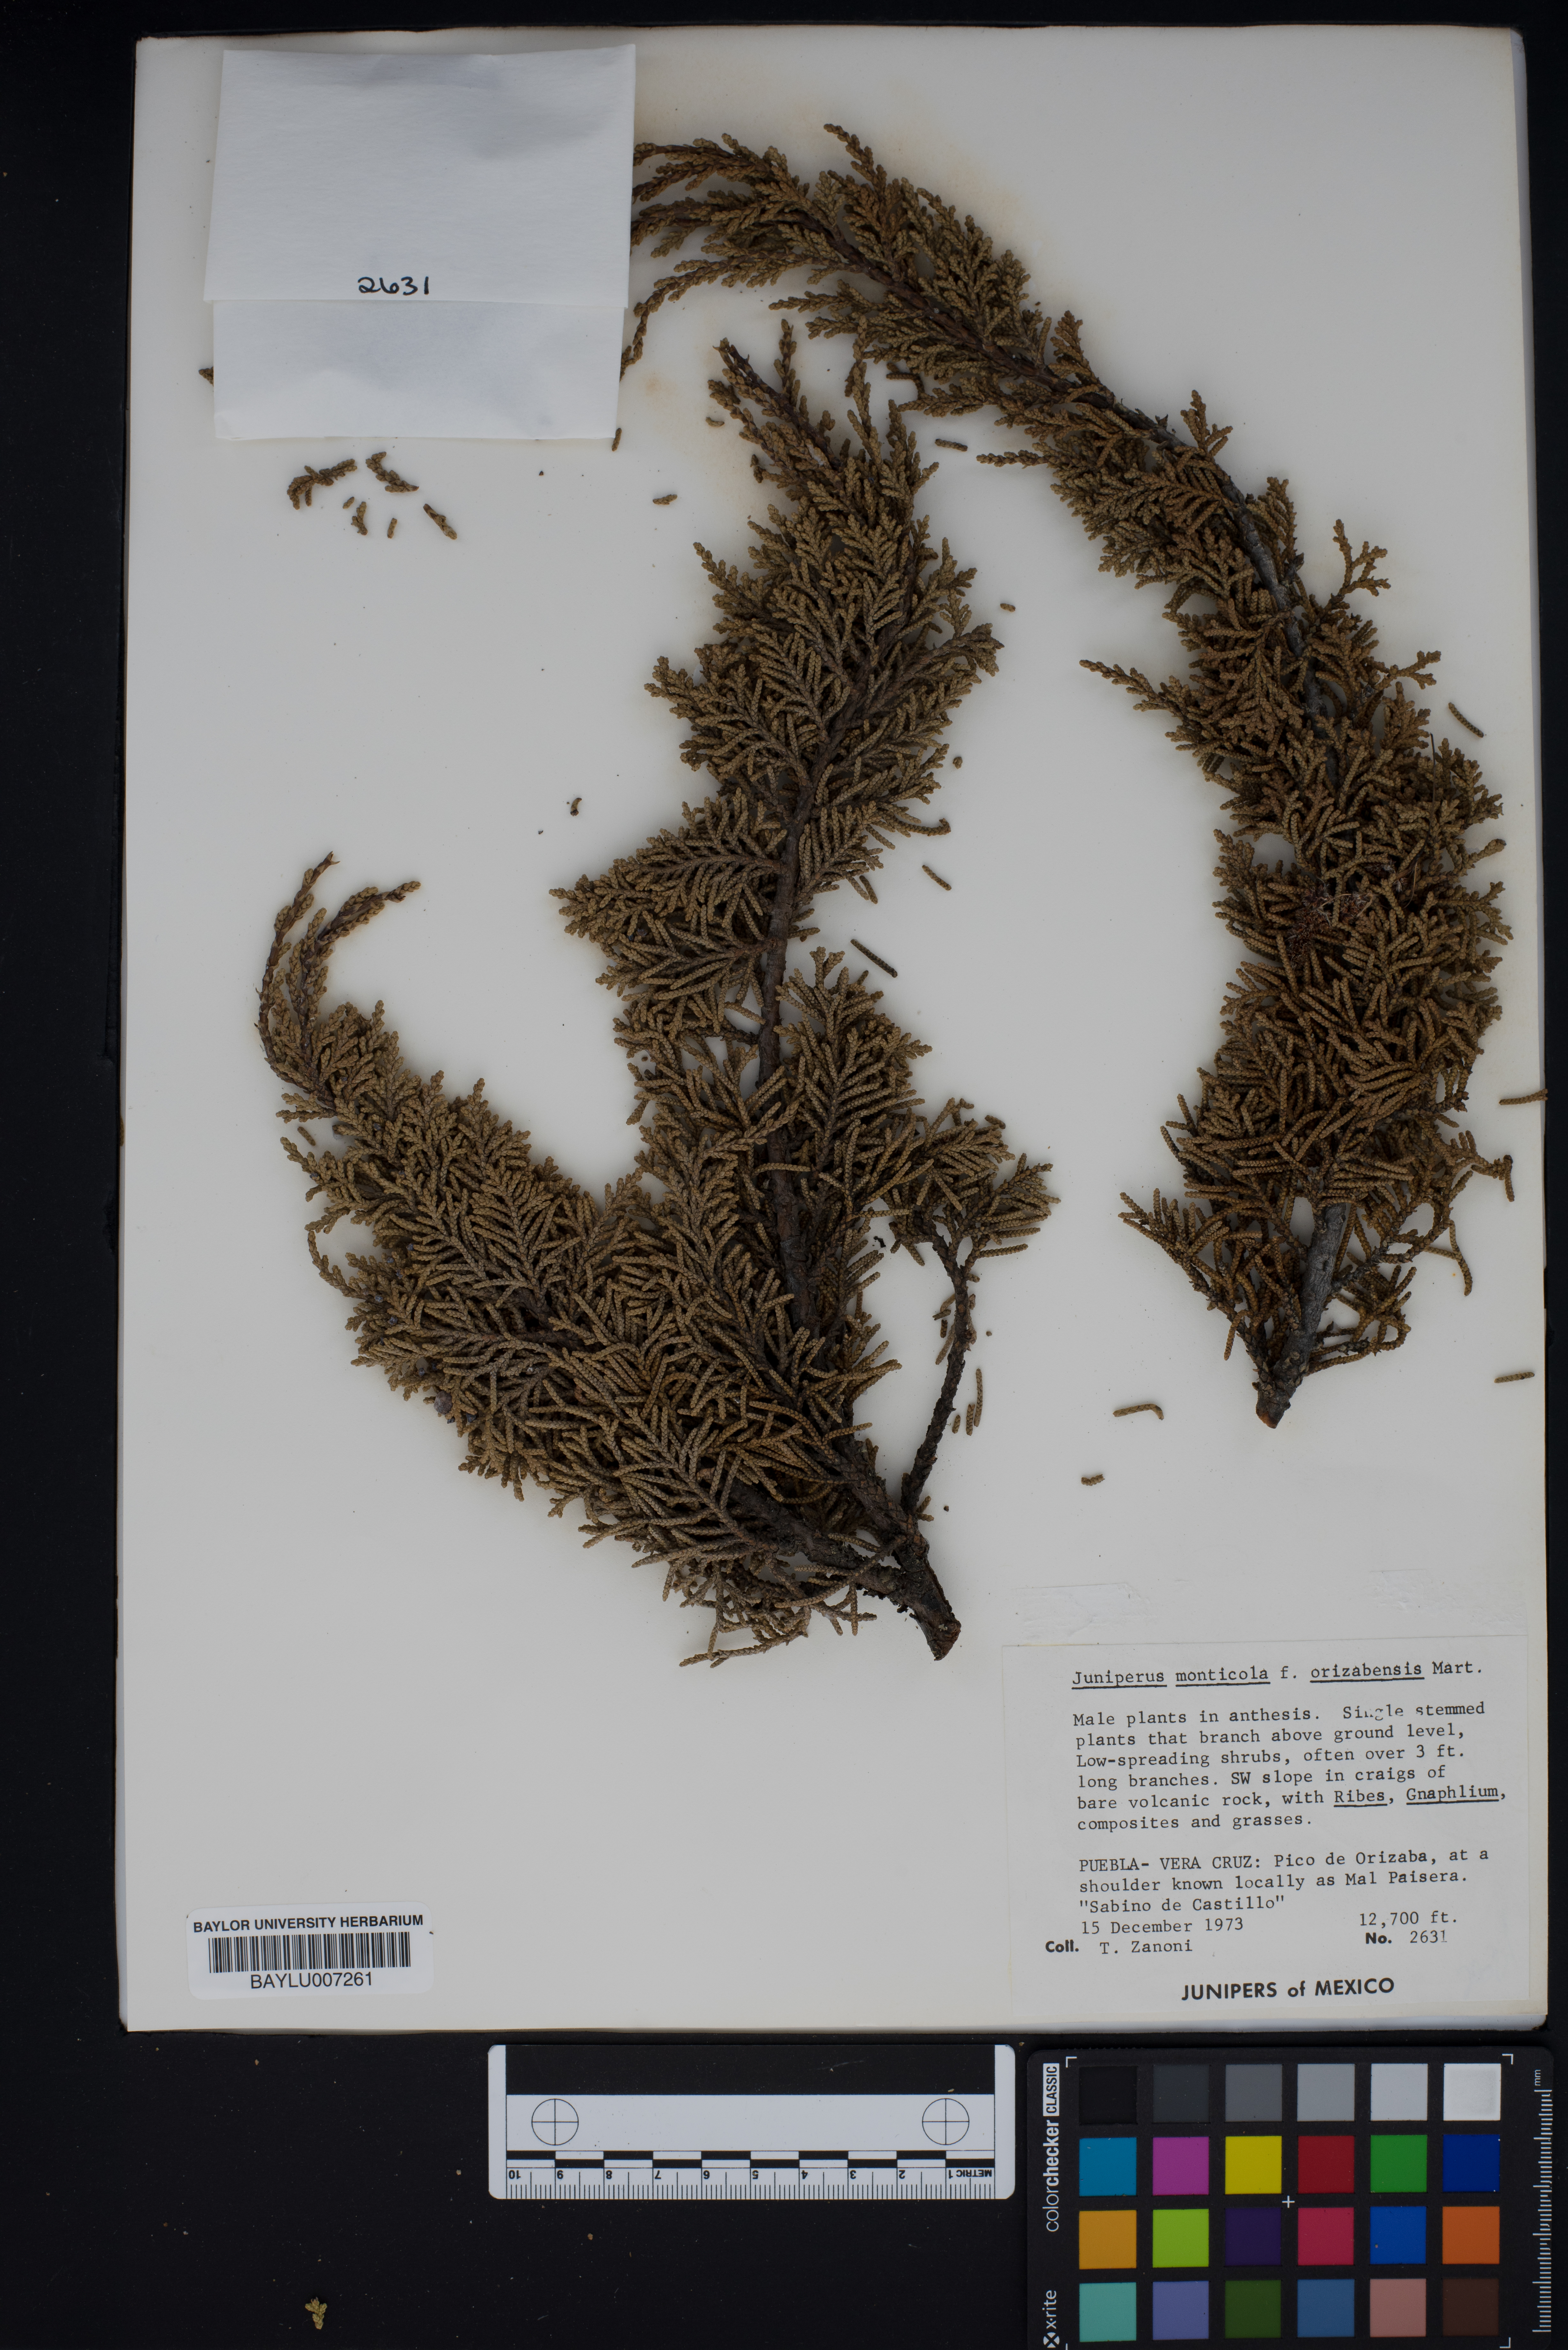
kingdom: Plantae
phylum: Tracheophyta
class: Pinopsida
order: Pinales
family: Cupressaceae
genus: Juniperus
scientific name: Juniperus monticola
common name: Mexican juniper
